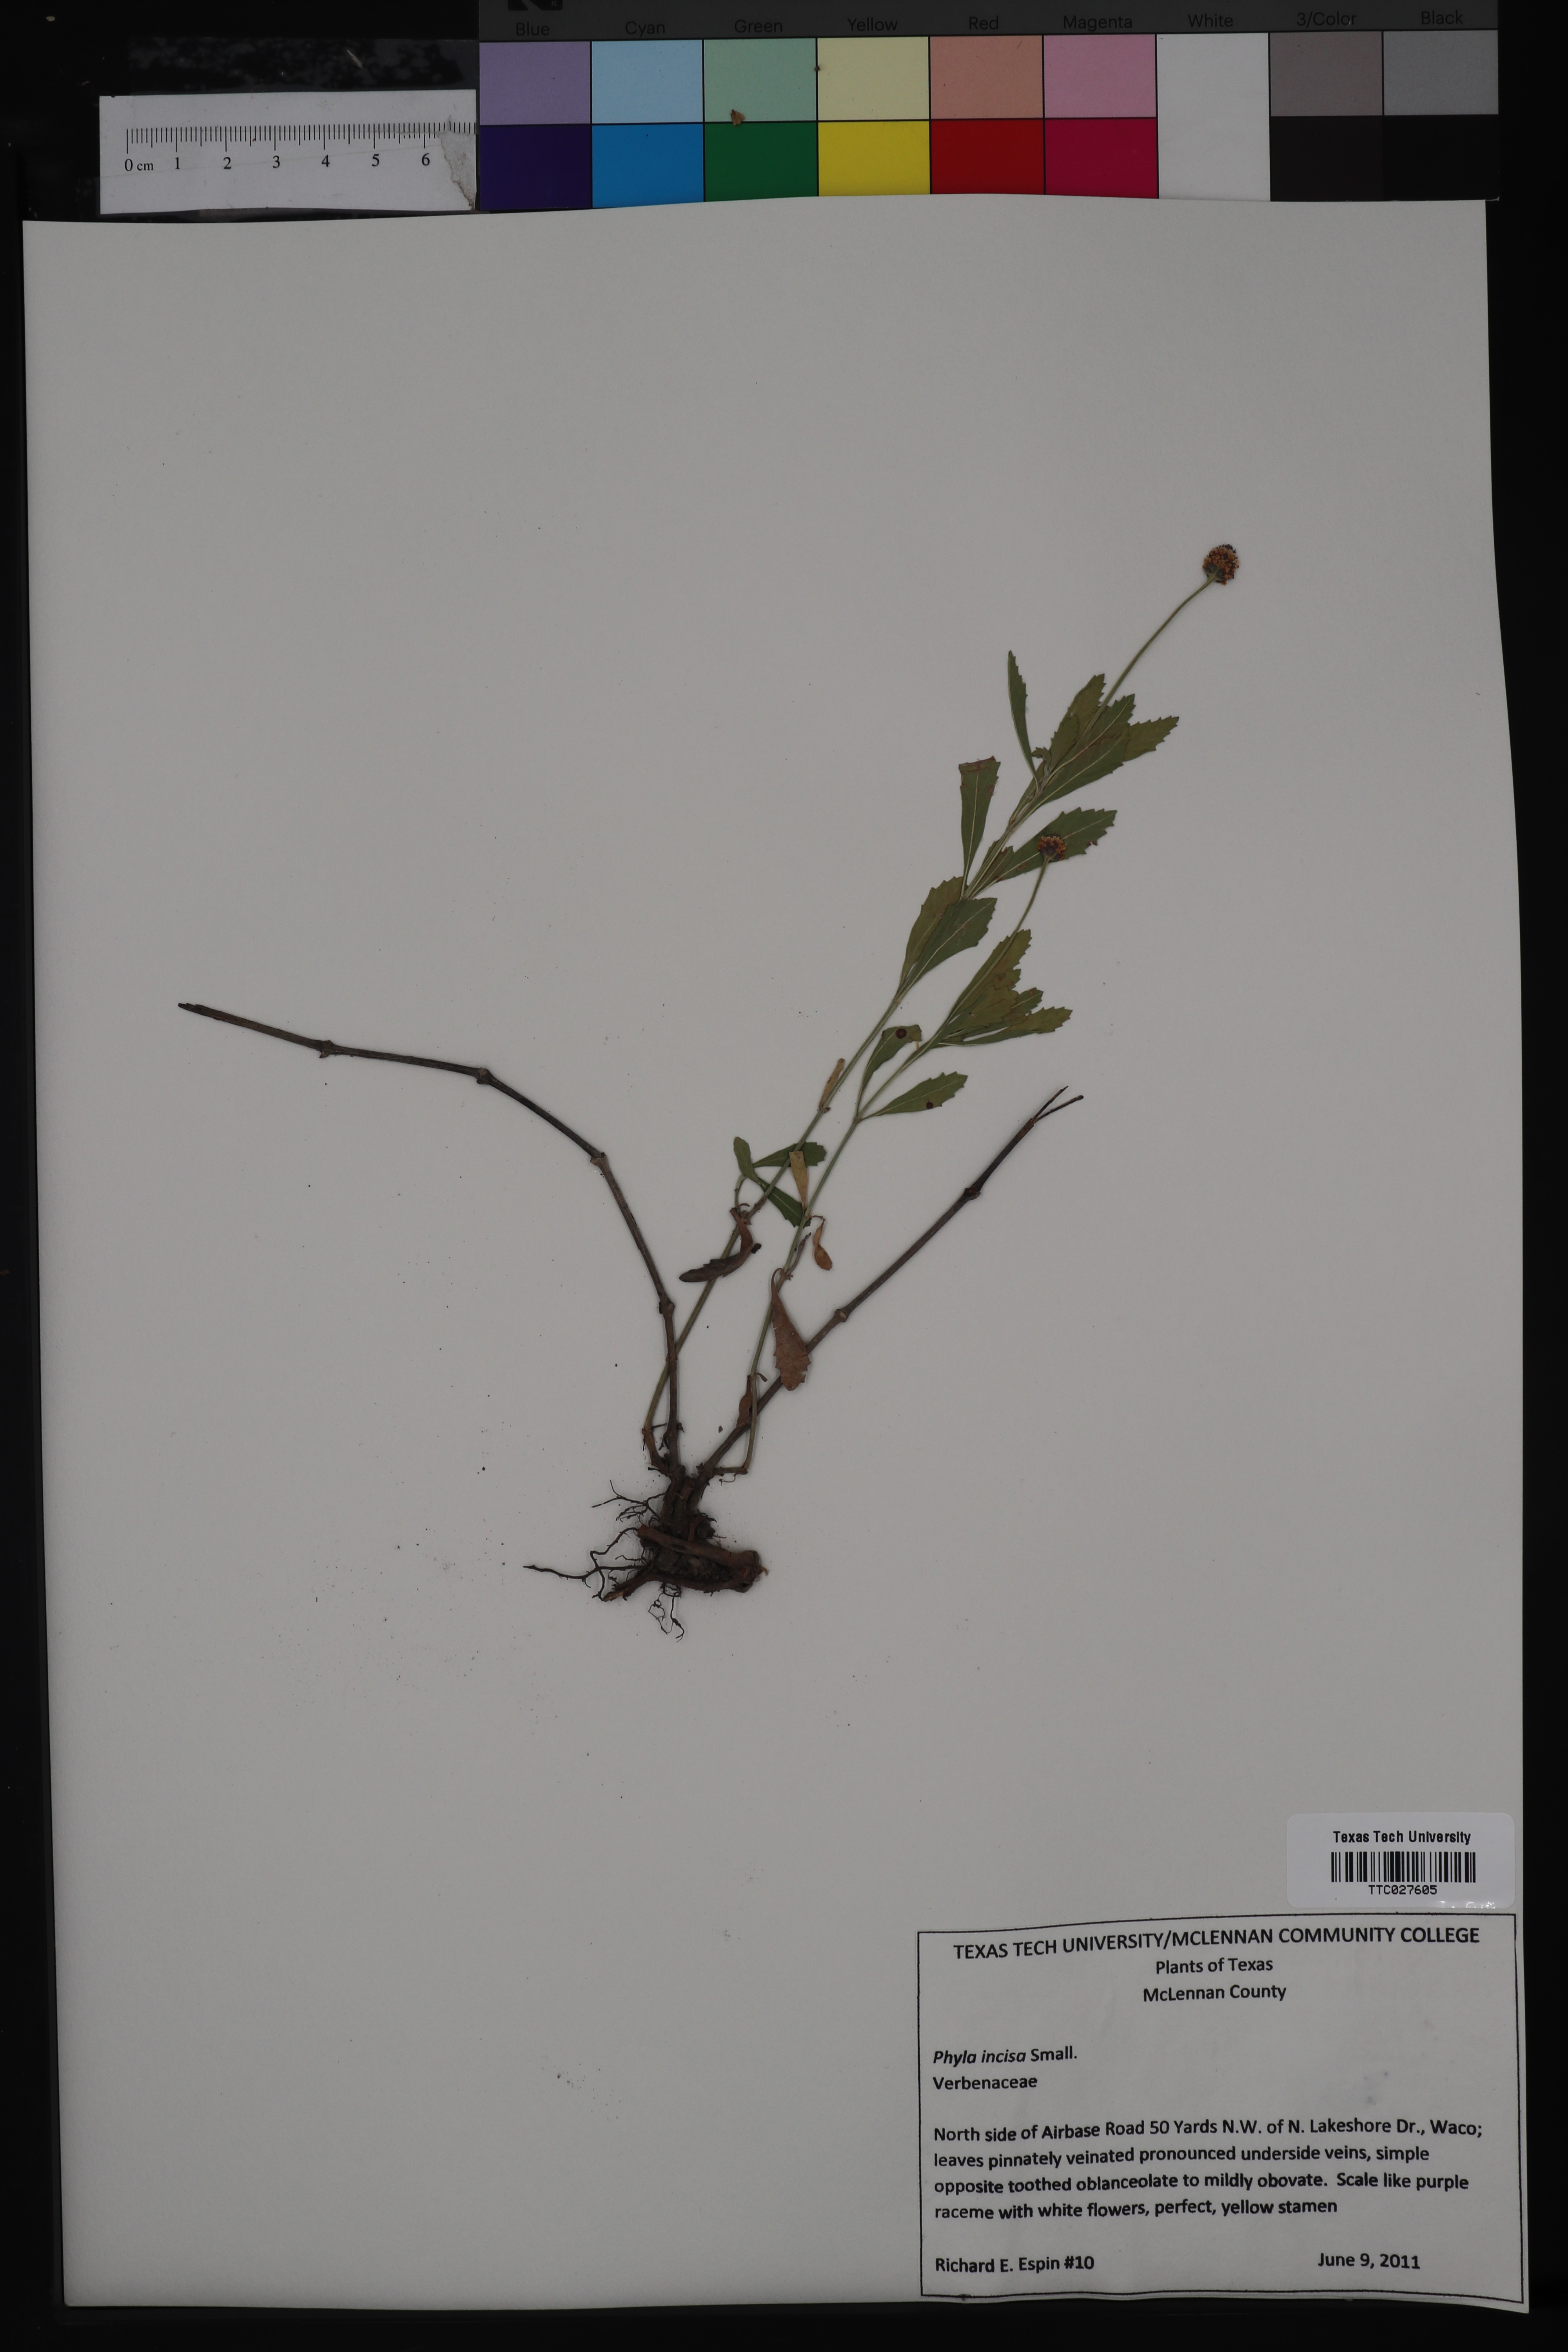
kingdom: Plantae
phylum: Tracheophyta
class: Magnoliopsida
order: Lamiales
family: Verbenaceae
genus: Phyla
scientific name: Phyla nodiflora
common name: Frogfruit
